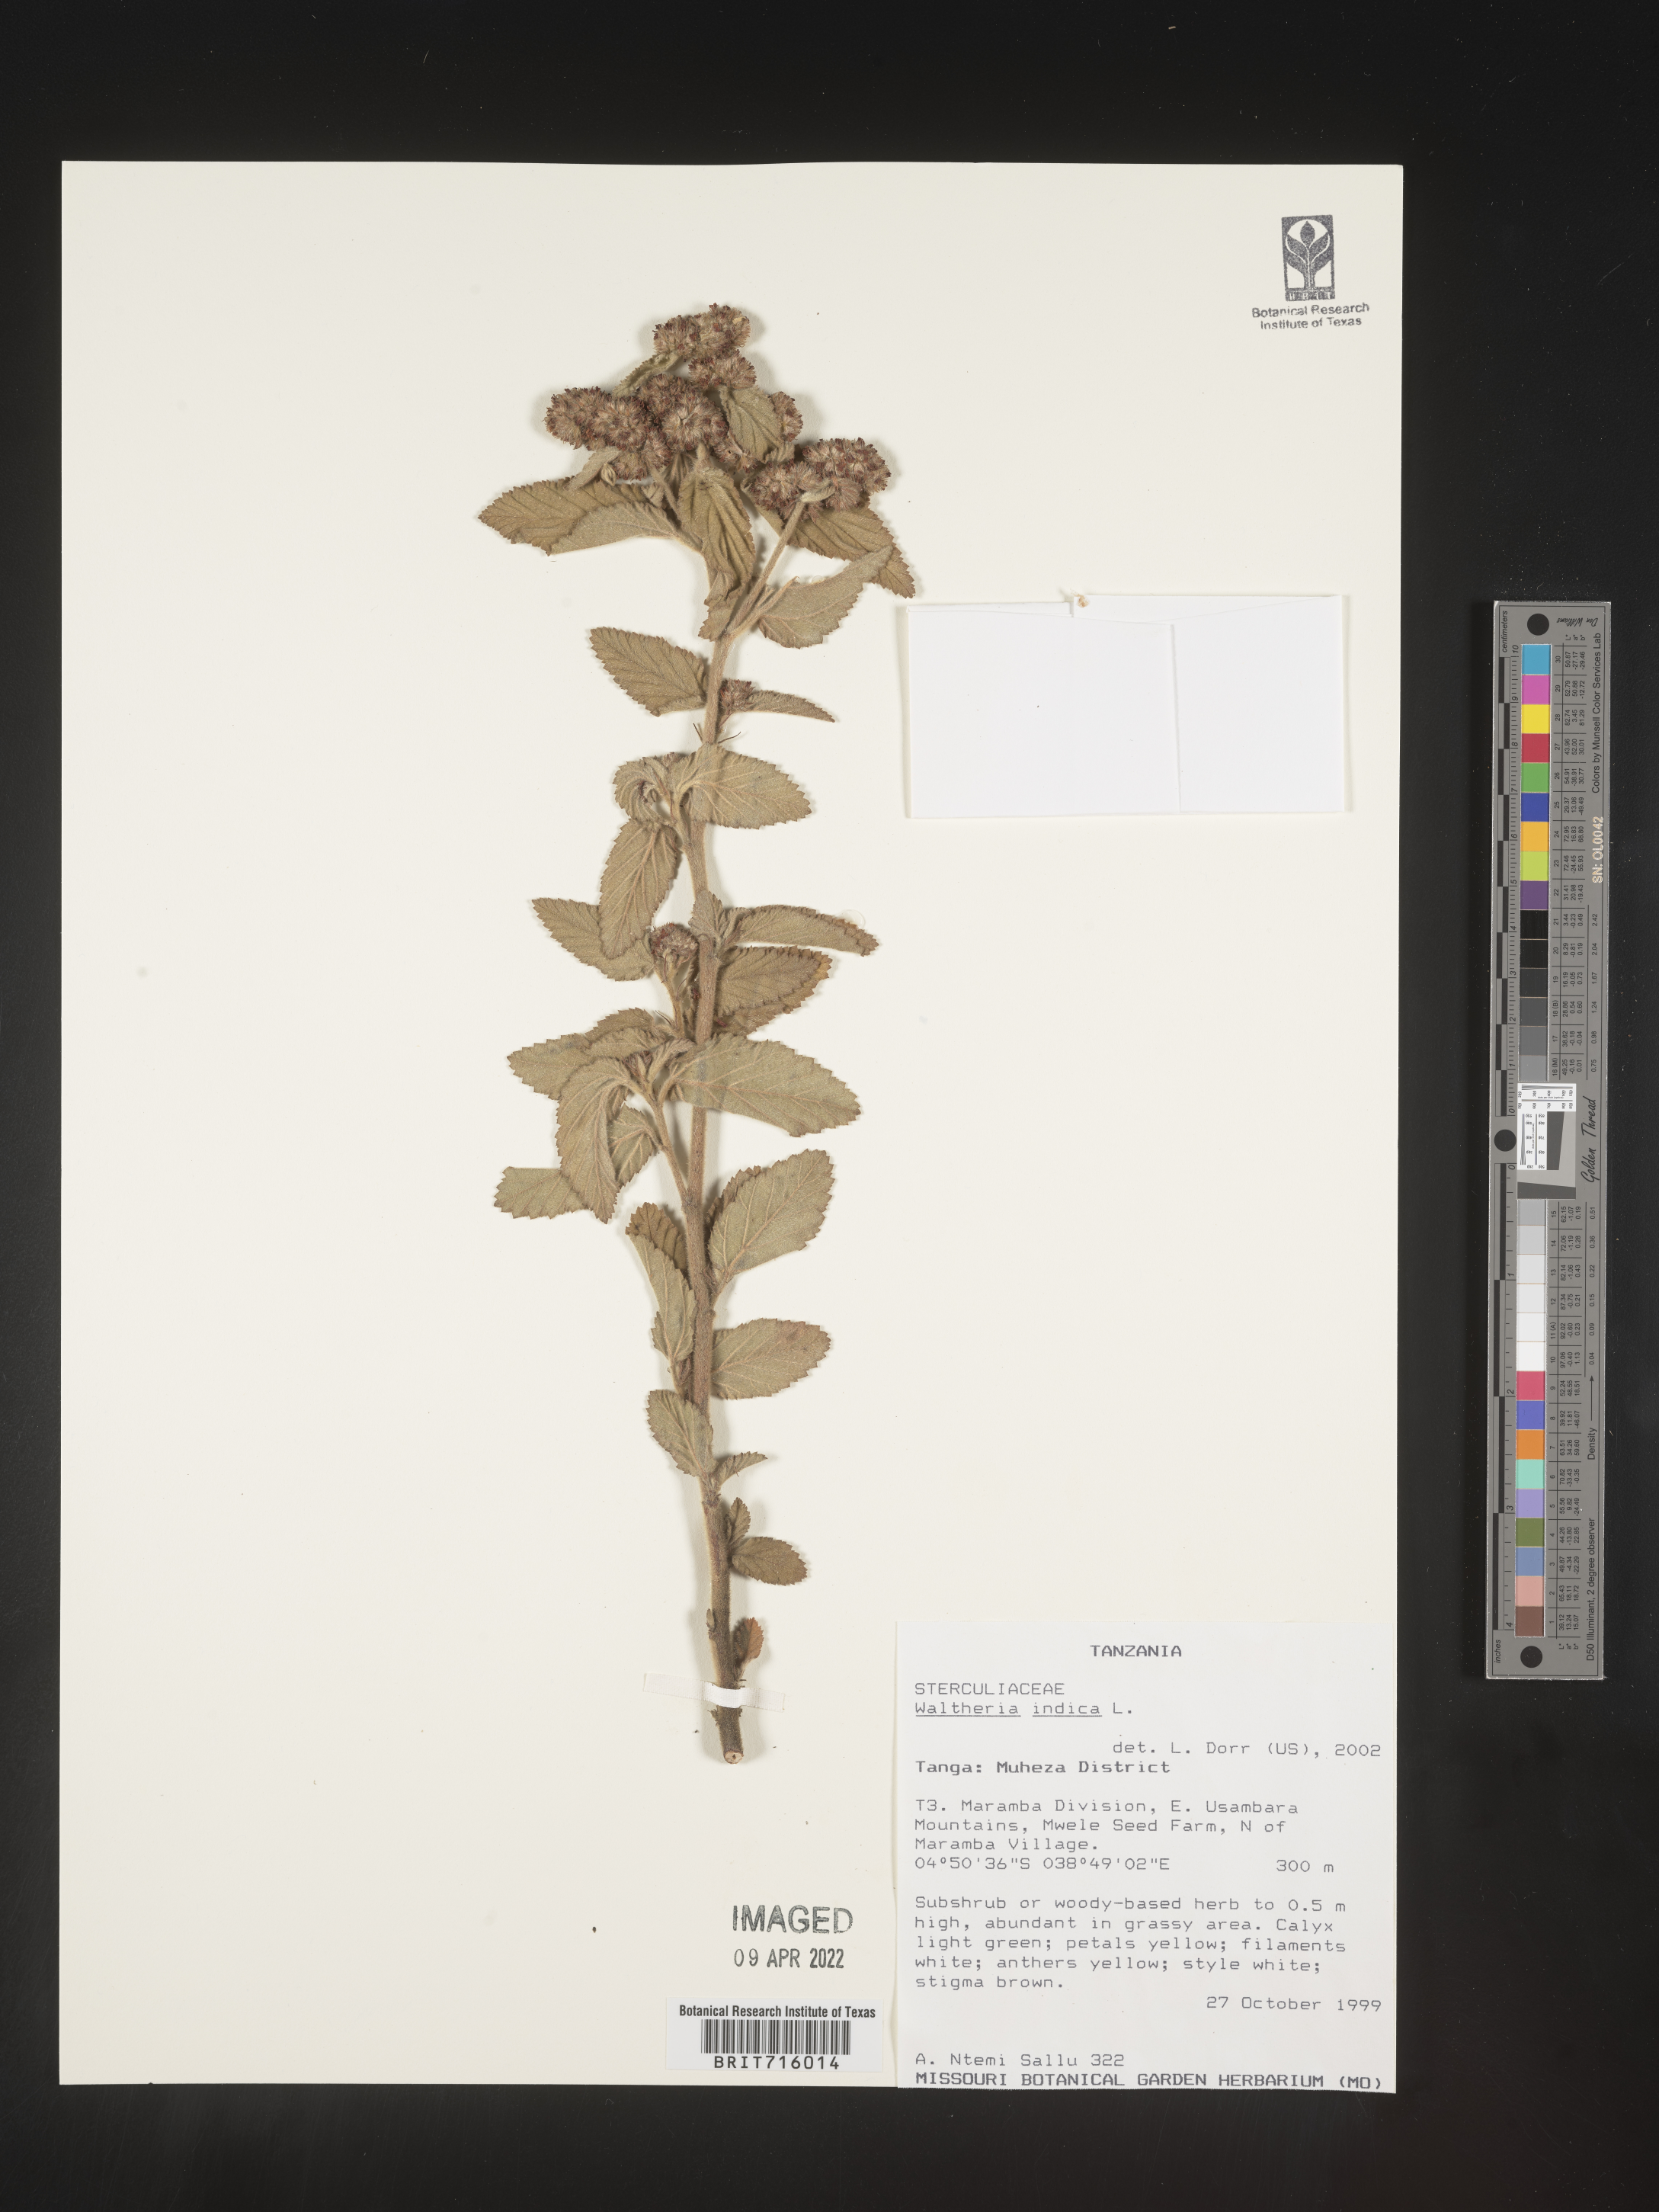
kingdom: Plantae
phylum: Tracheophyta
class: Magnoliopsida
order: Malvales
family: Malvaceae
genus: Waltheria
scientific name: Waltheria
